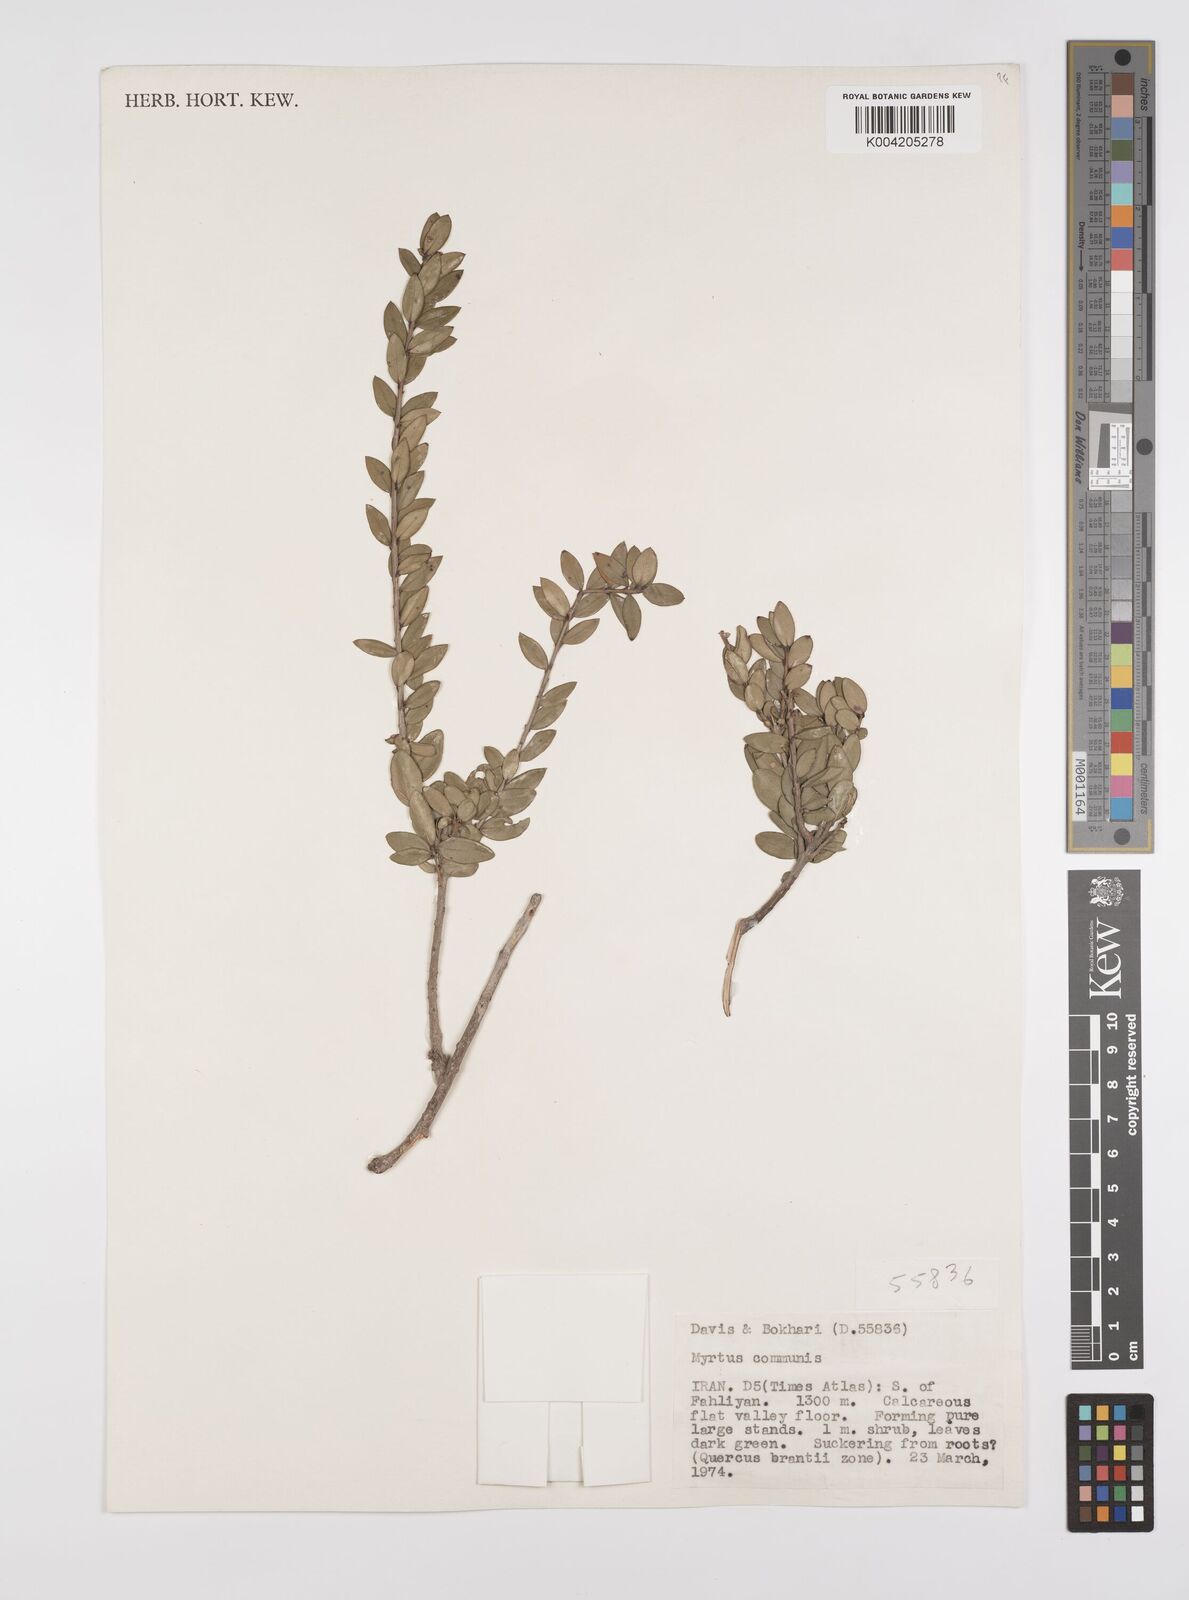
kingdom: Plantae
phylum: Tracheophyta
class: Magnoliopsida
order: Myrtales
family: Myrtaceae
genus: Myrtus
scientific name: Myrtus communis
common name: Myrtle
